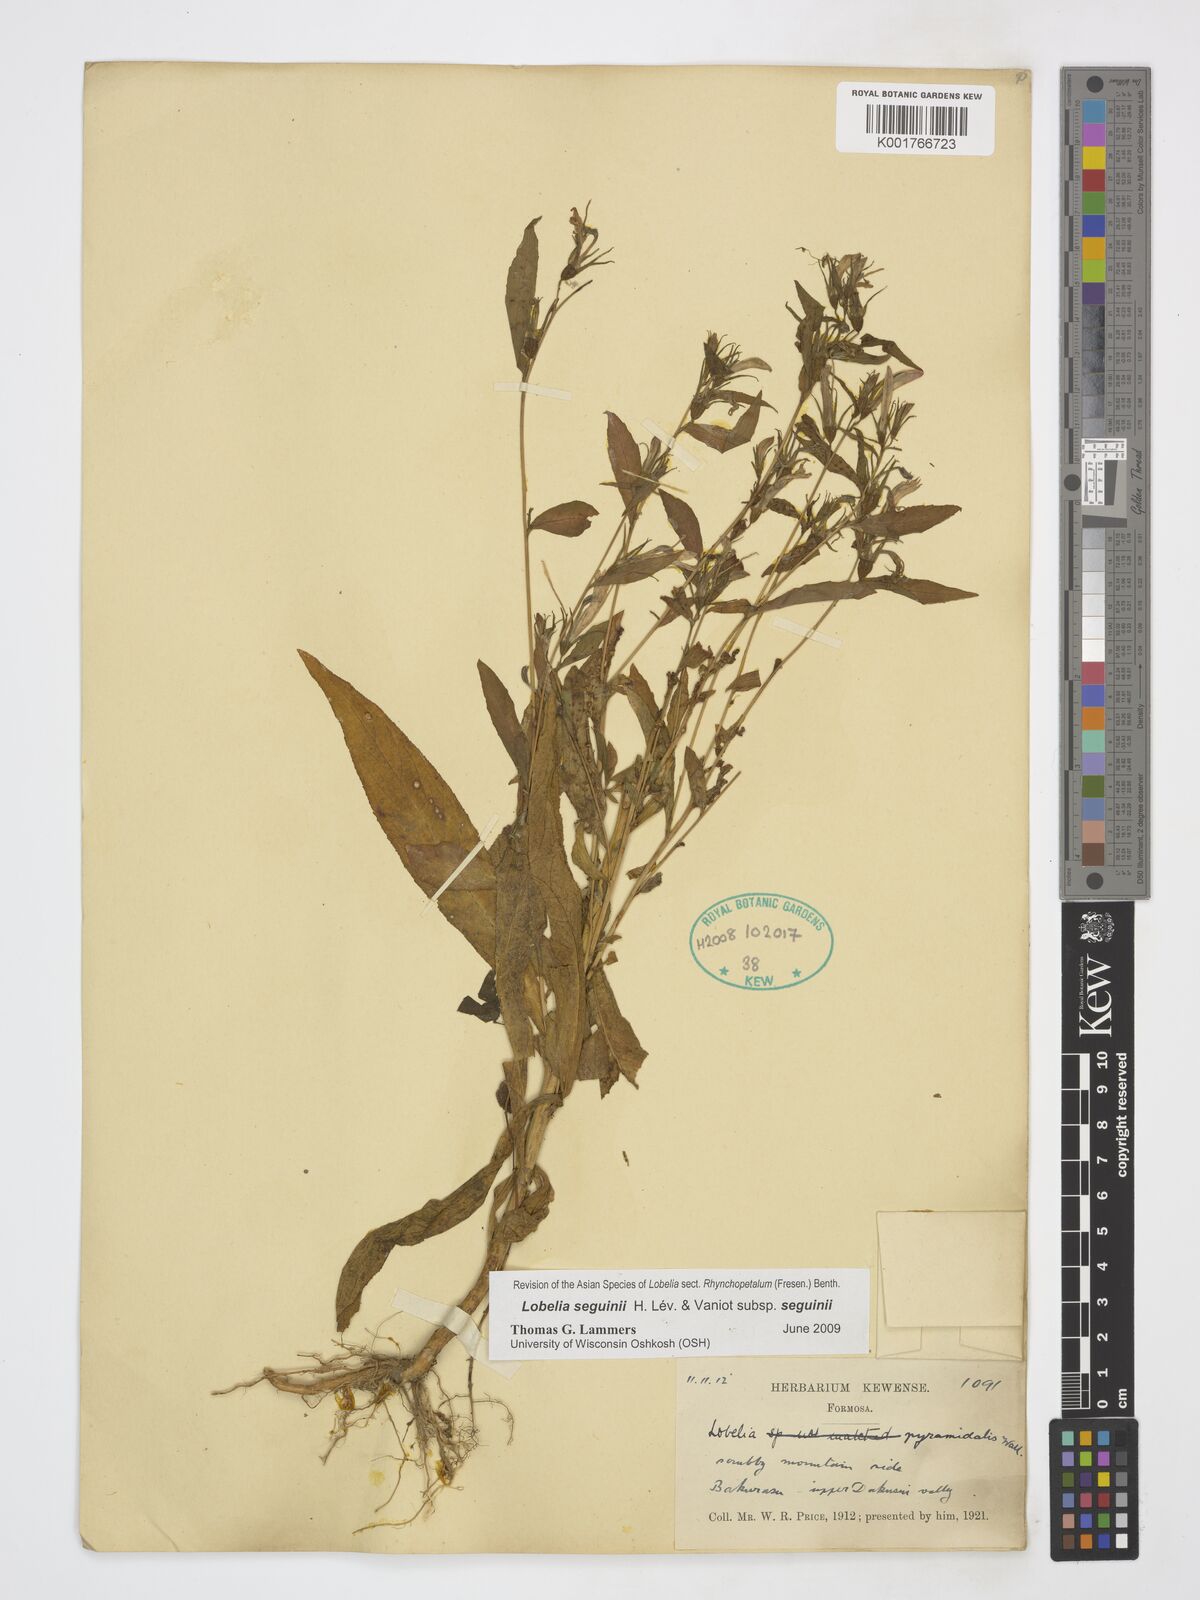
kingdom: Plantae
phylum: Tracheophyta
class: Magnoliopsida
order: Asterales
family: Campanulaceae
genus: Lobelia
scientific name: Lobelia seguinii
